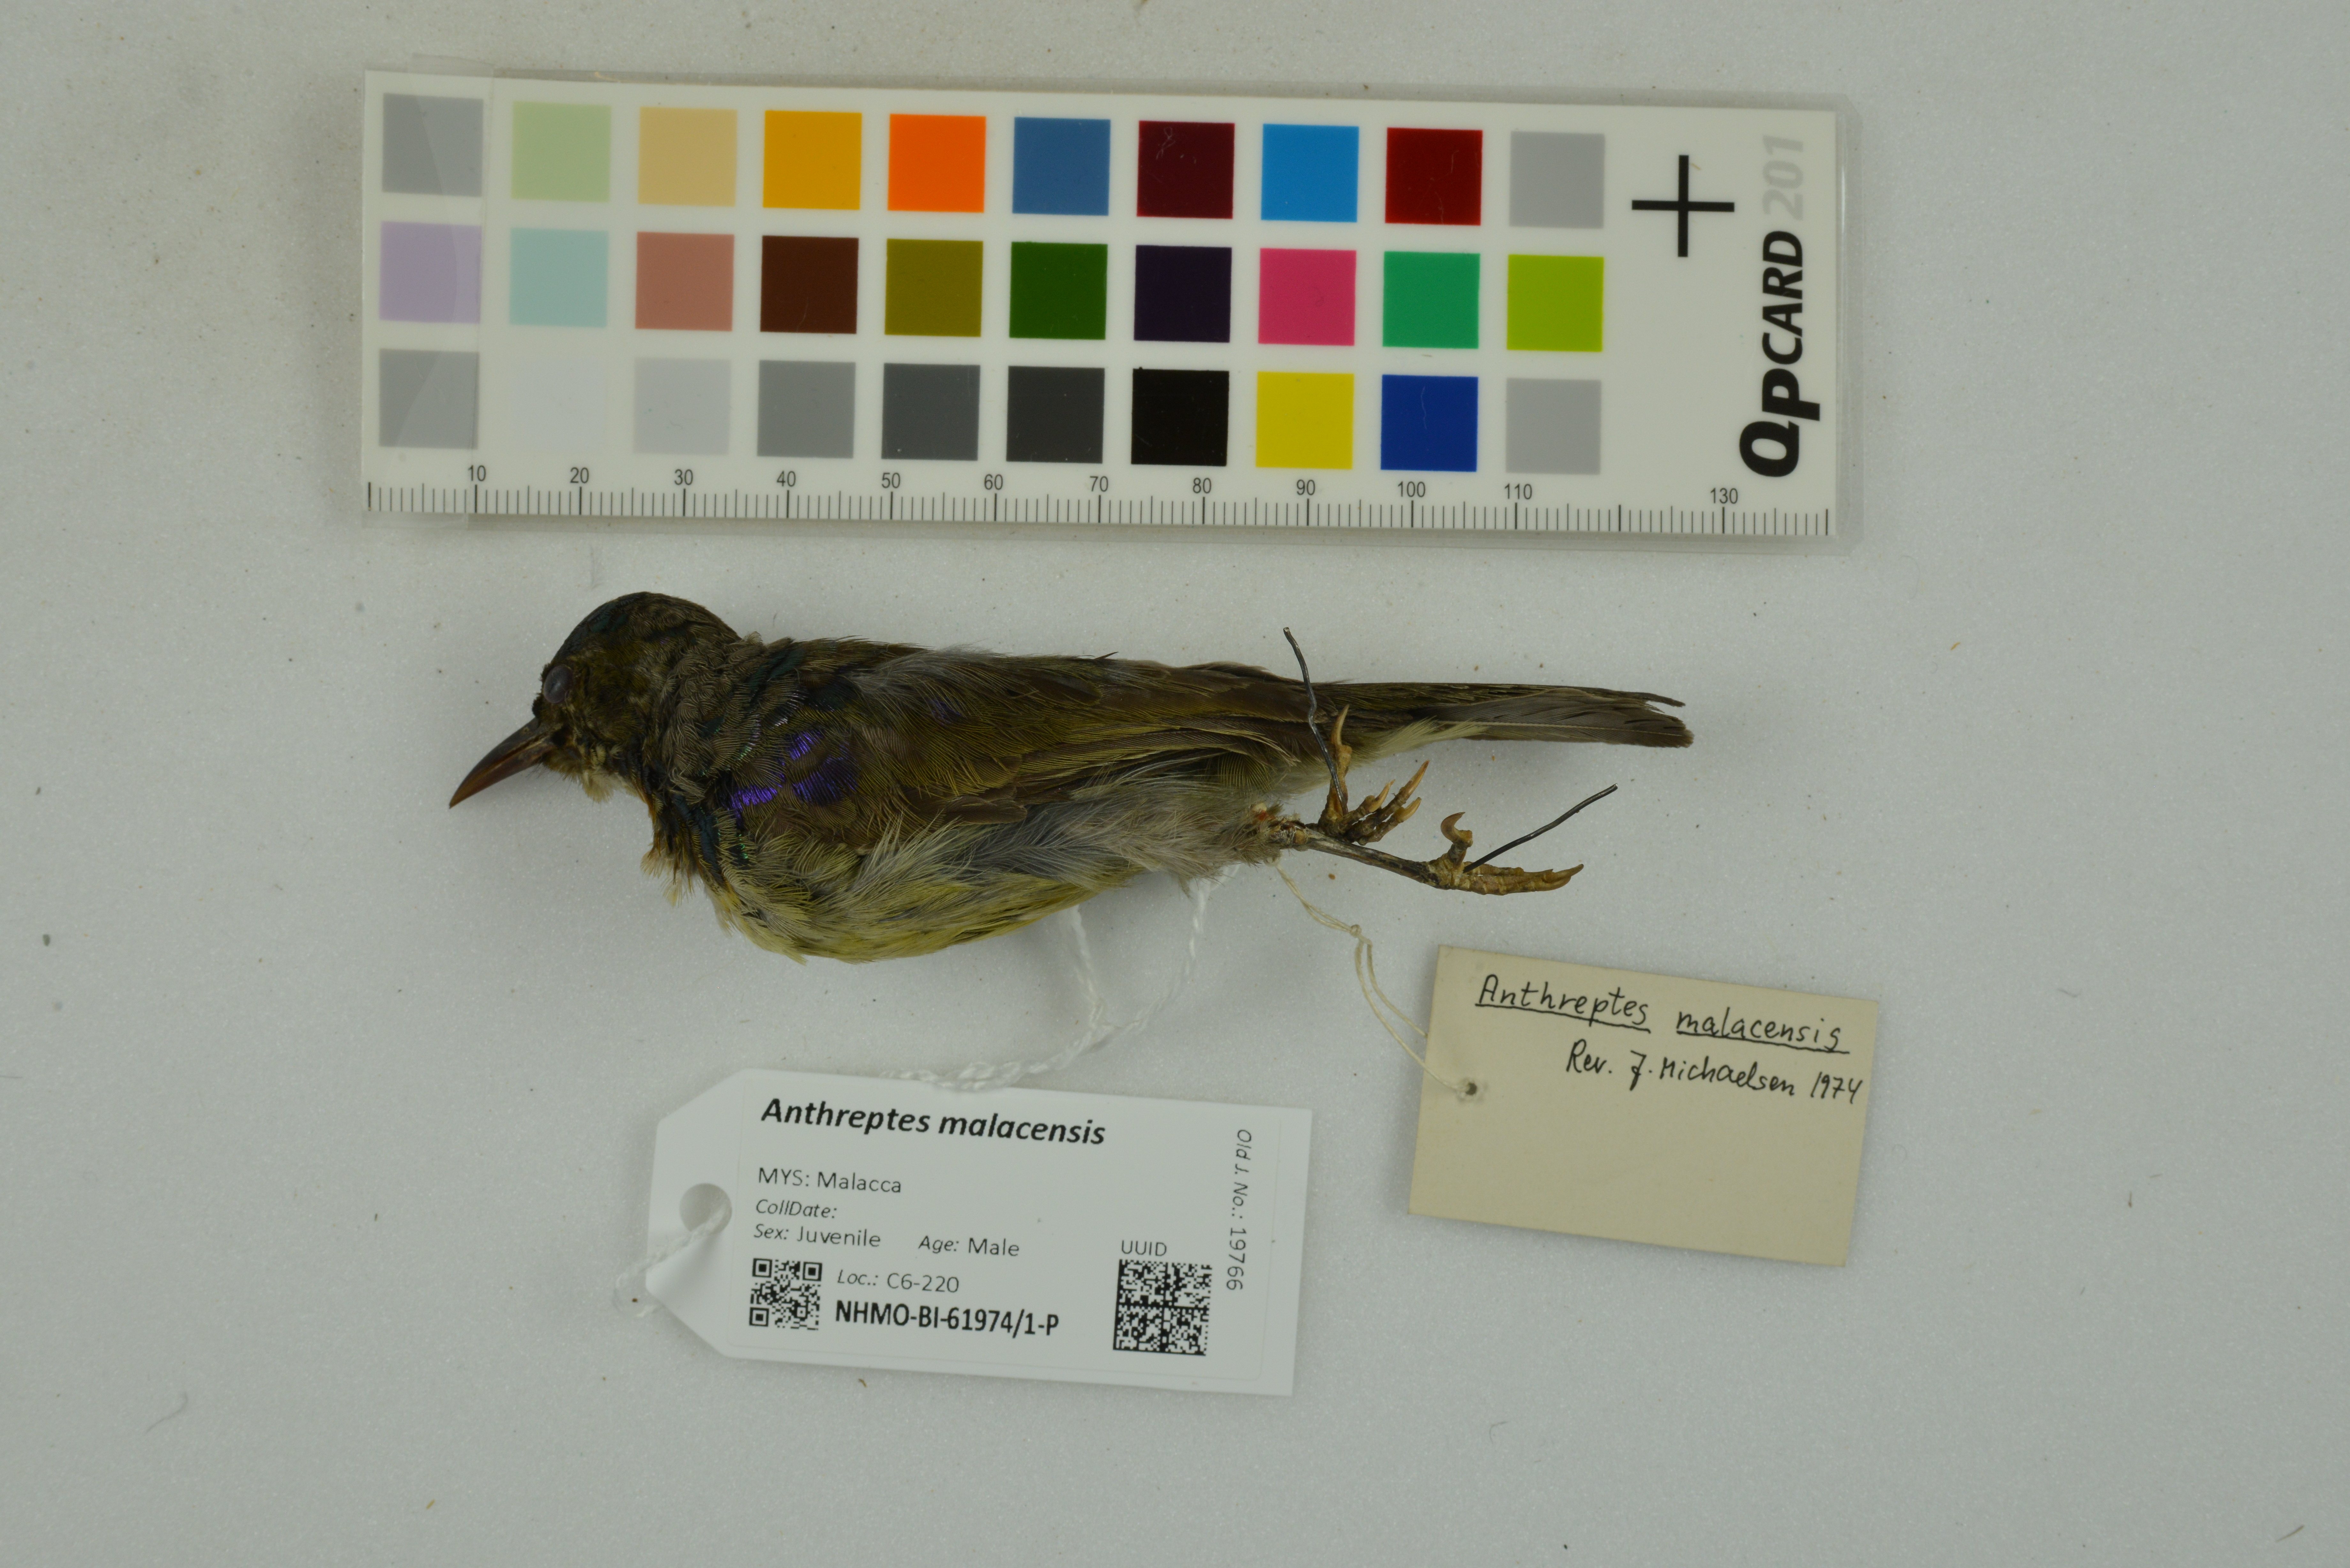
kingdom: Animalia
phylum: Chordata
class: Aves
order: Passeriformes
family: Nectariniidae
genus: Anthreptes
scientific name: Anthreptes malacensis
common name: Brown-throated sunbird
